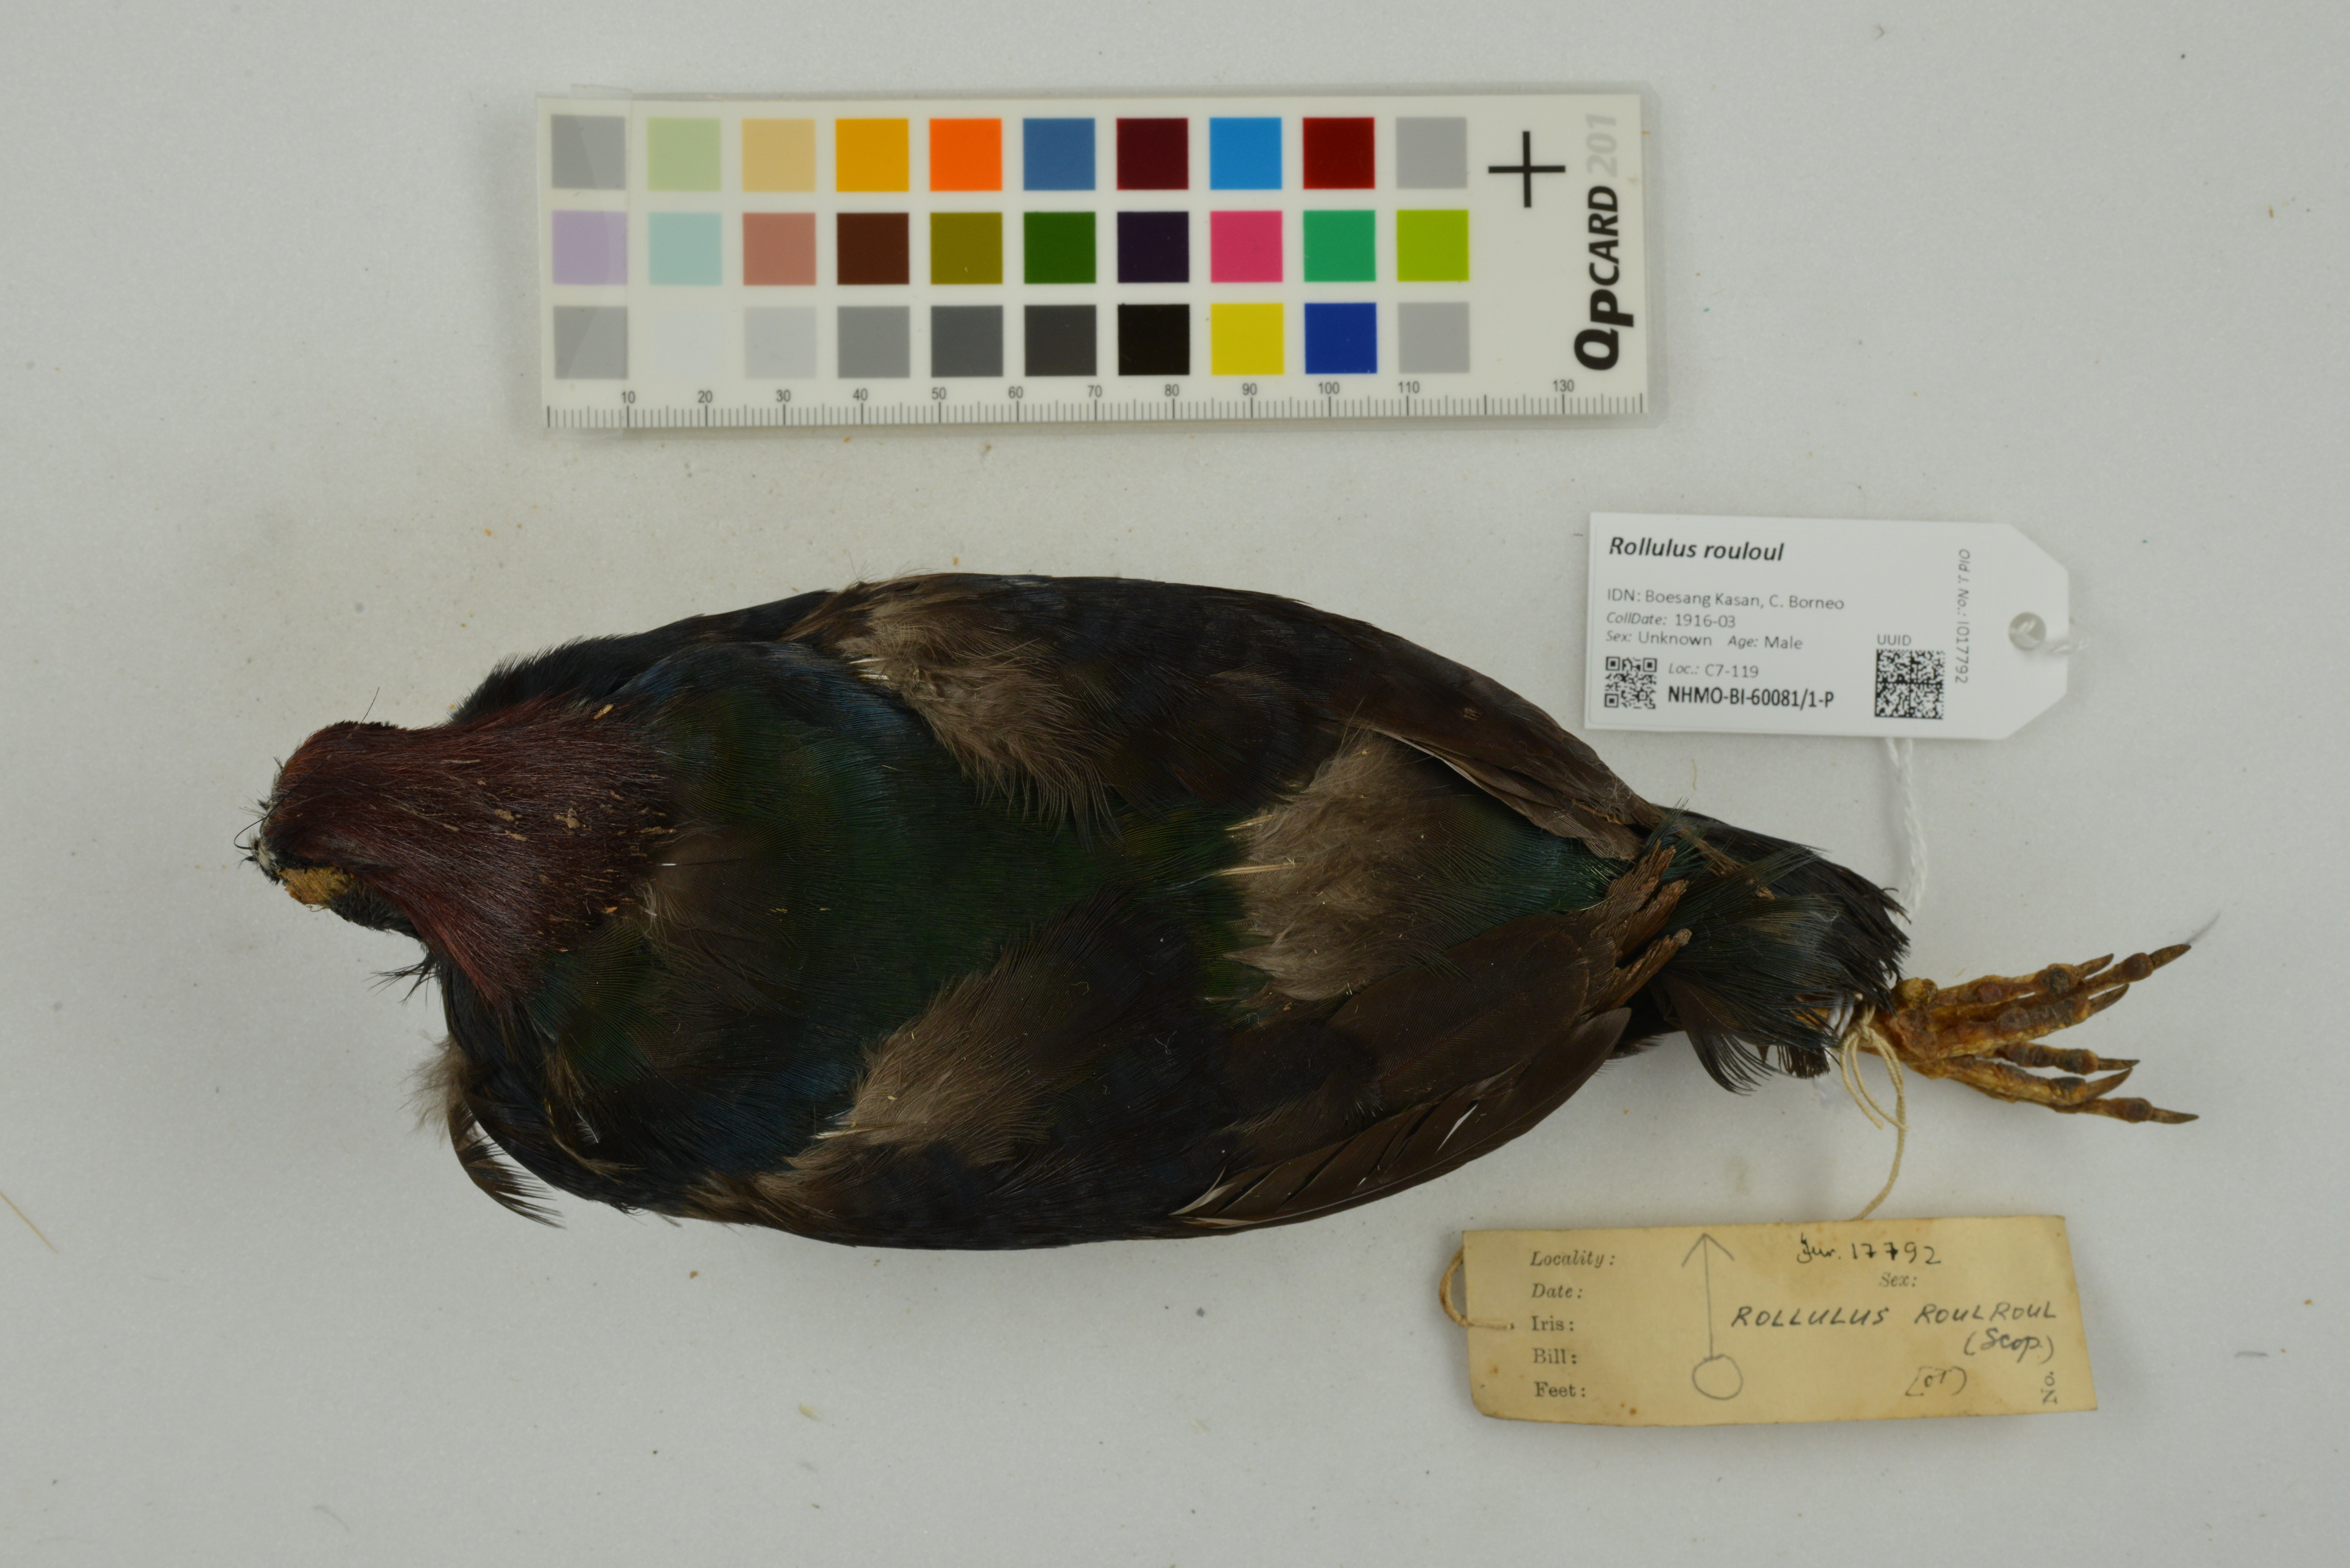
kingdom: Animalia
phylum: Chordata
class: Aves
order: Galliformes
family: Phasianidae
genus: Rollulus
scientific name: Rollulus rouloul
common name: Crested partridge
